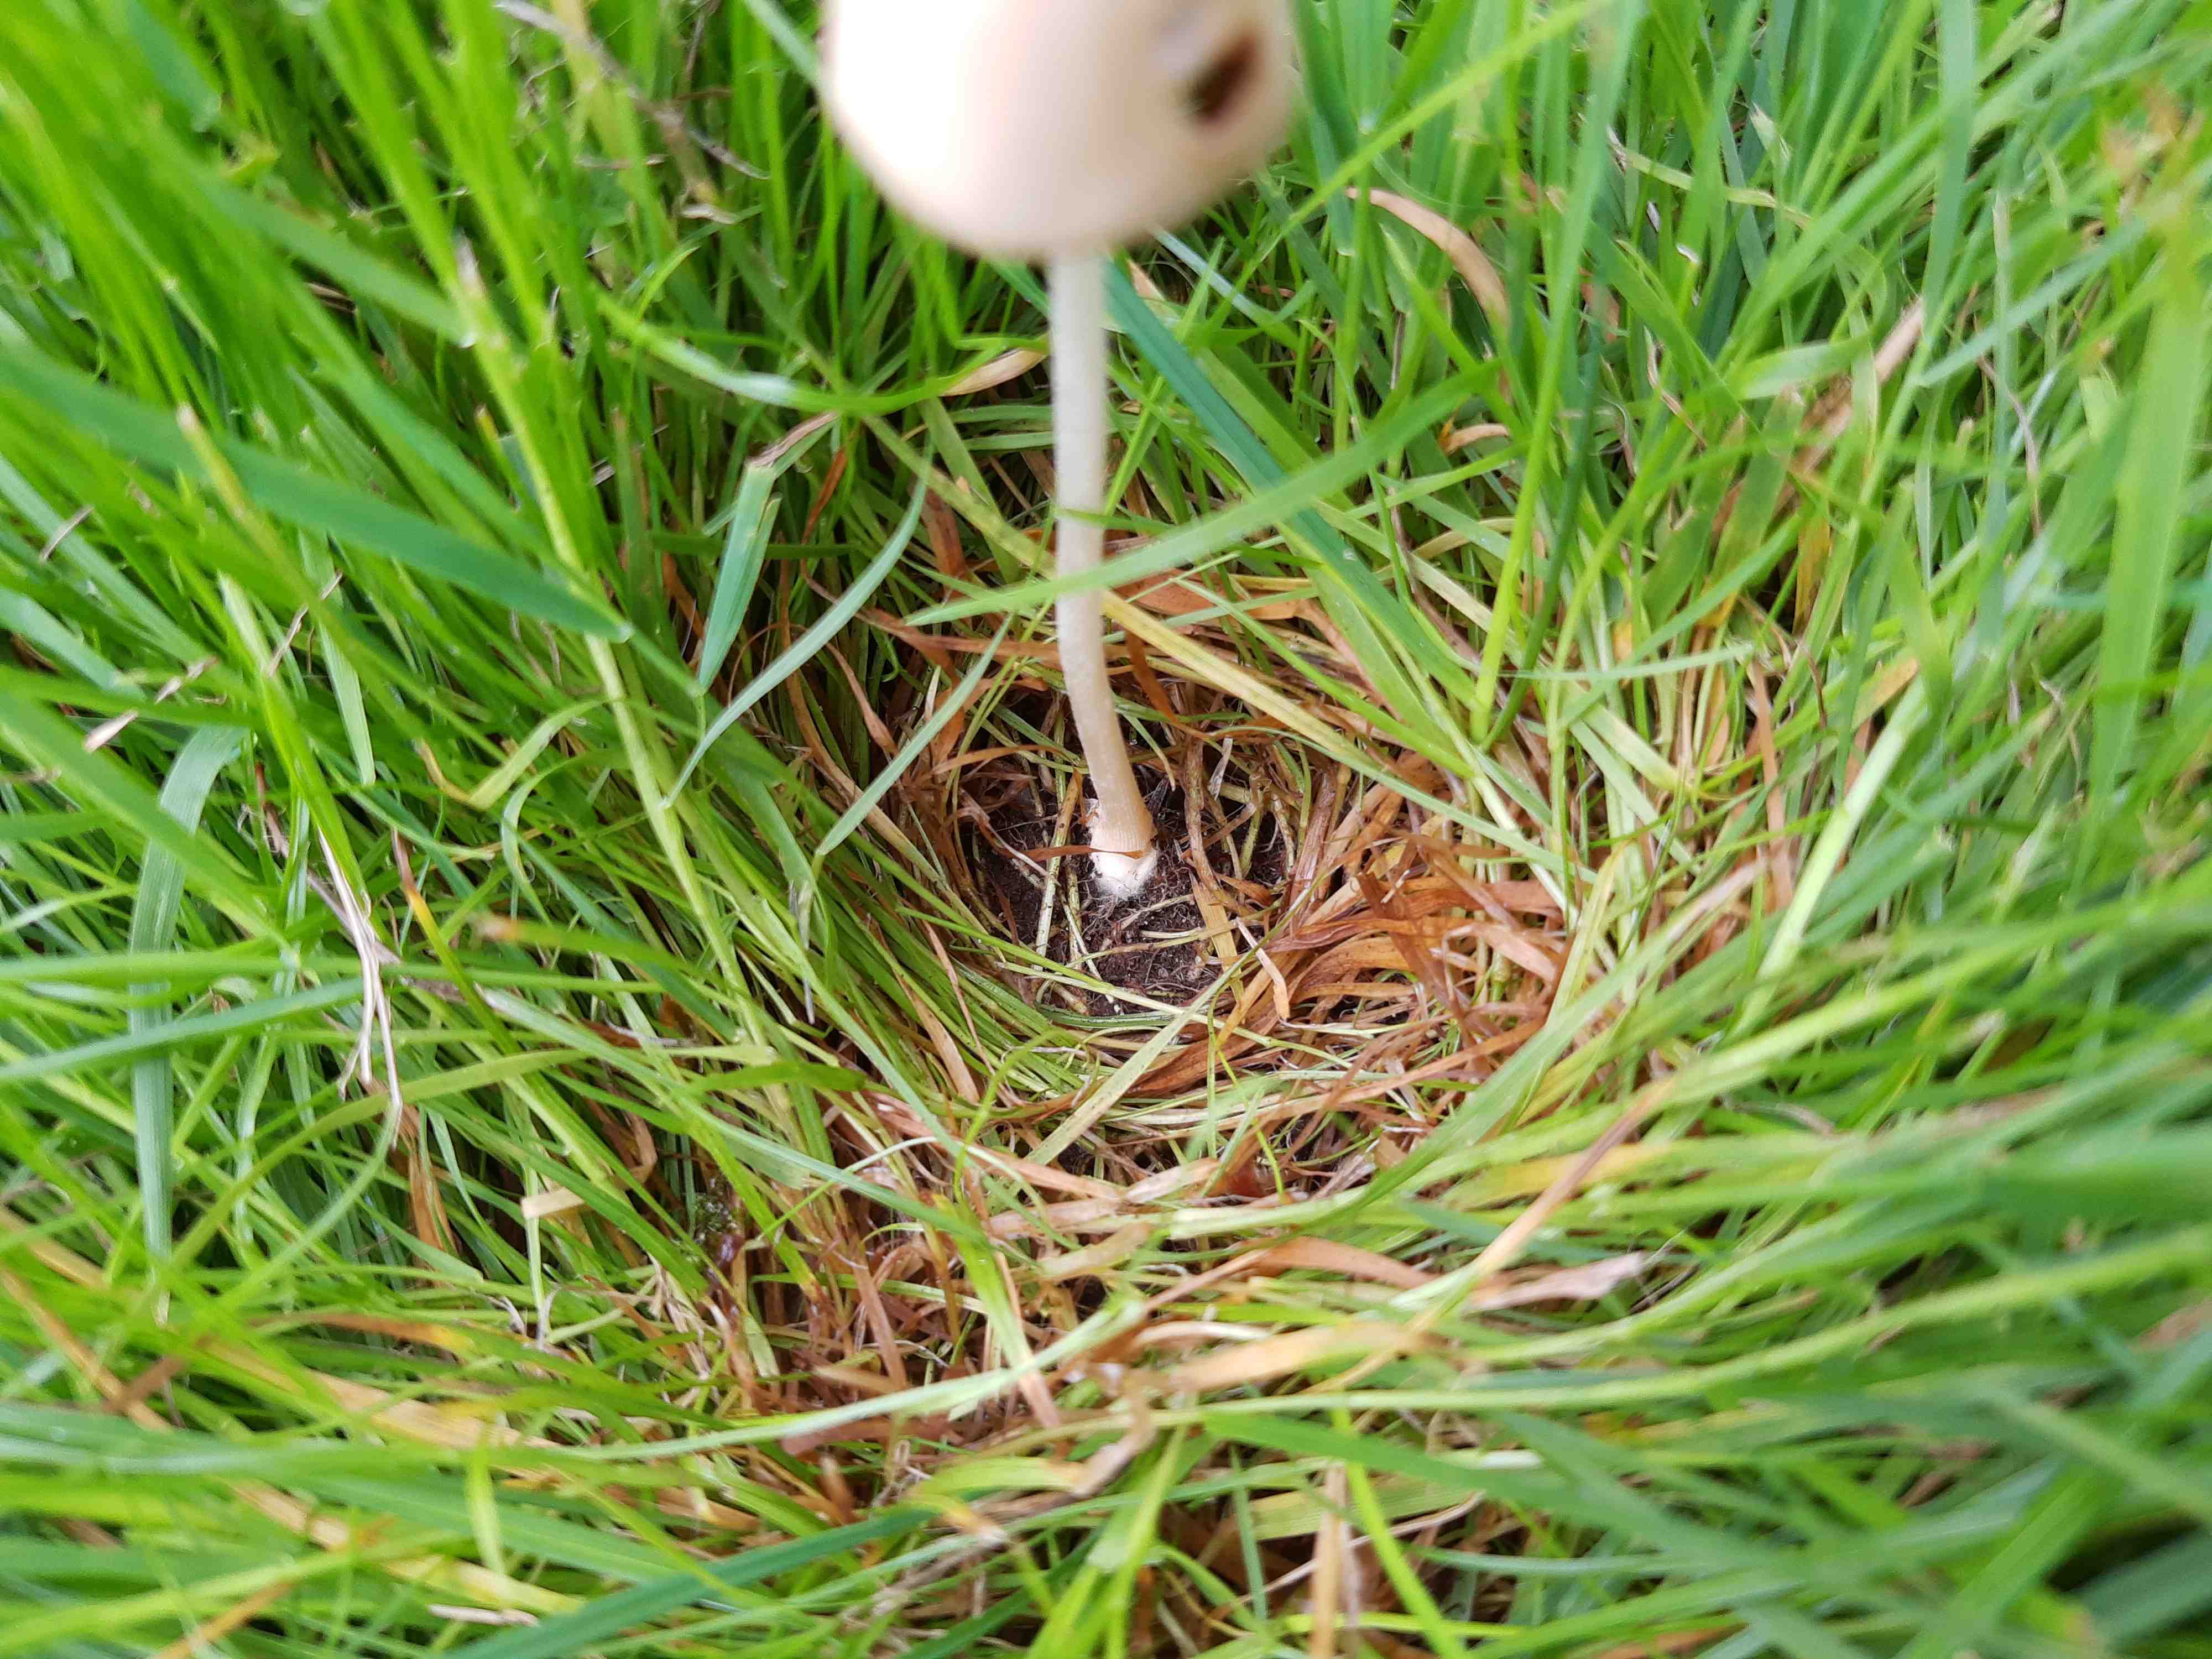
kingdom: Fungi
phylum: Basidiomycota
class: Agaricomycetes
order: Agaricales
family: Bolbitiaceae
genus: Conocybe
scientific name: Conocybe apala
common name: mælkehvid keglehat
